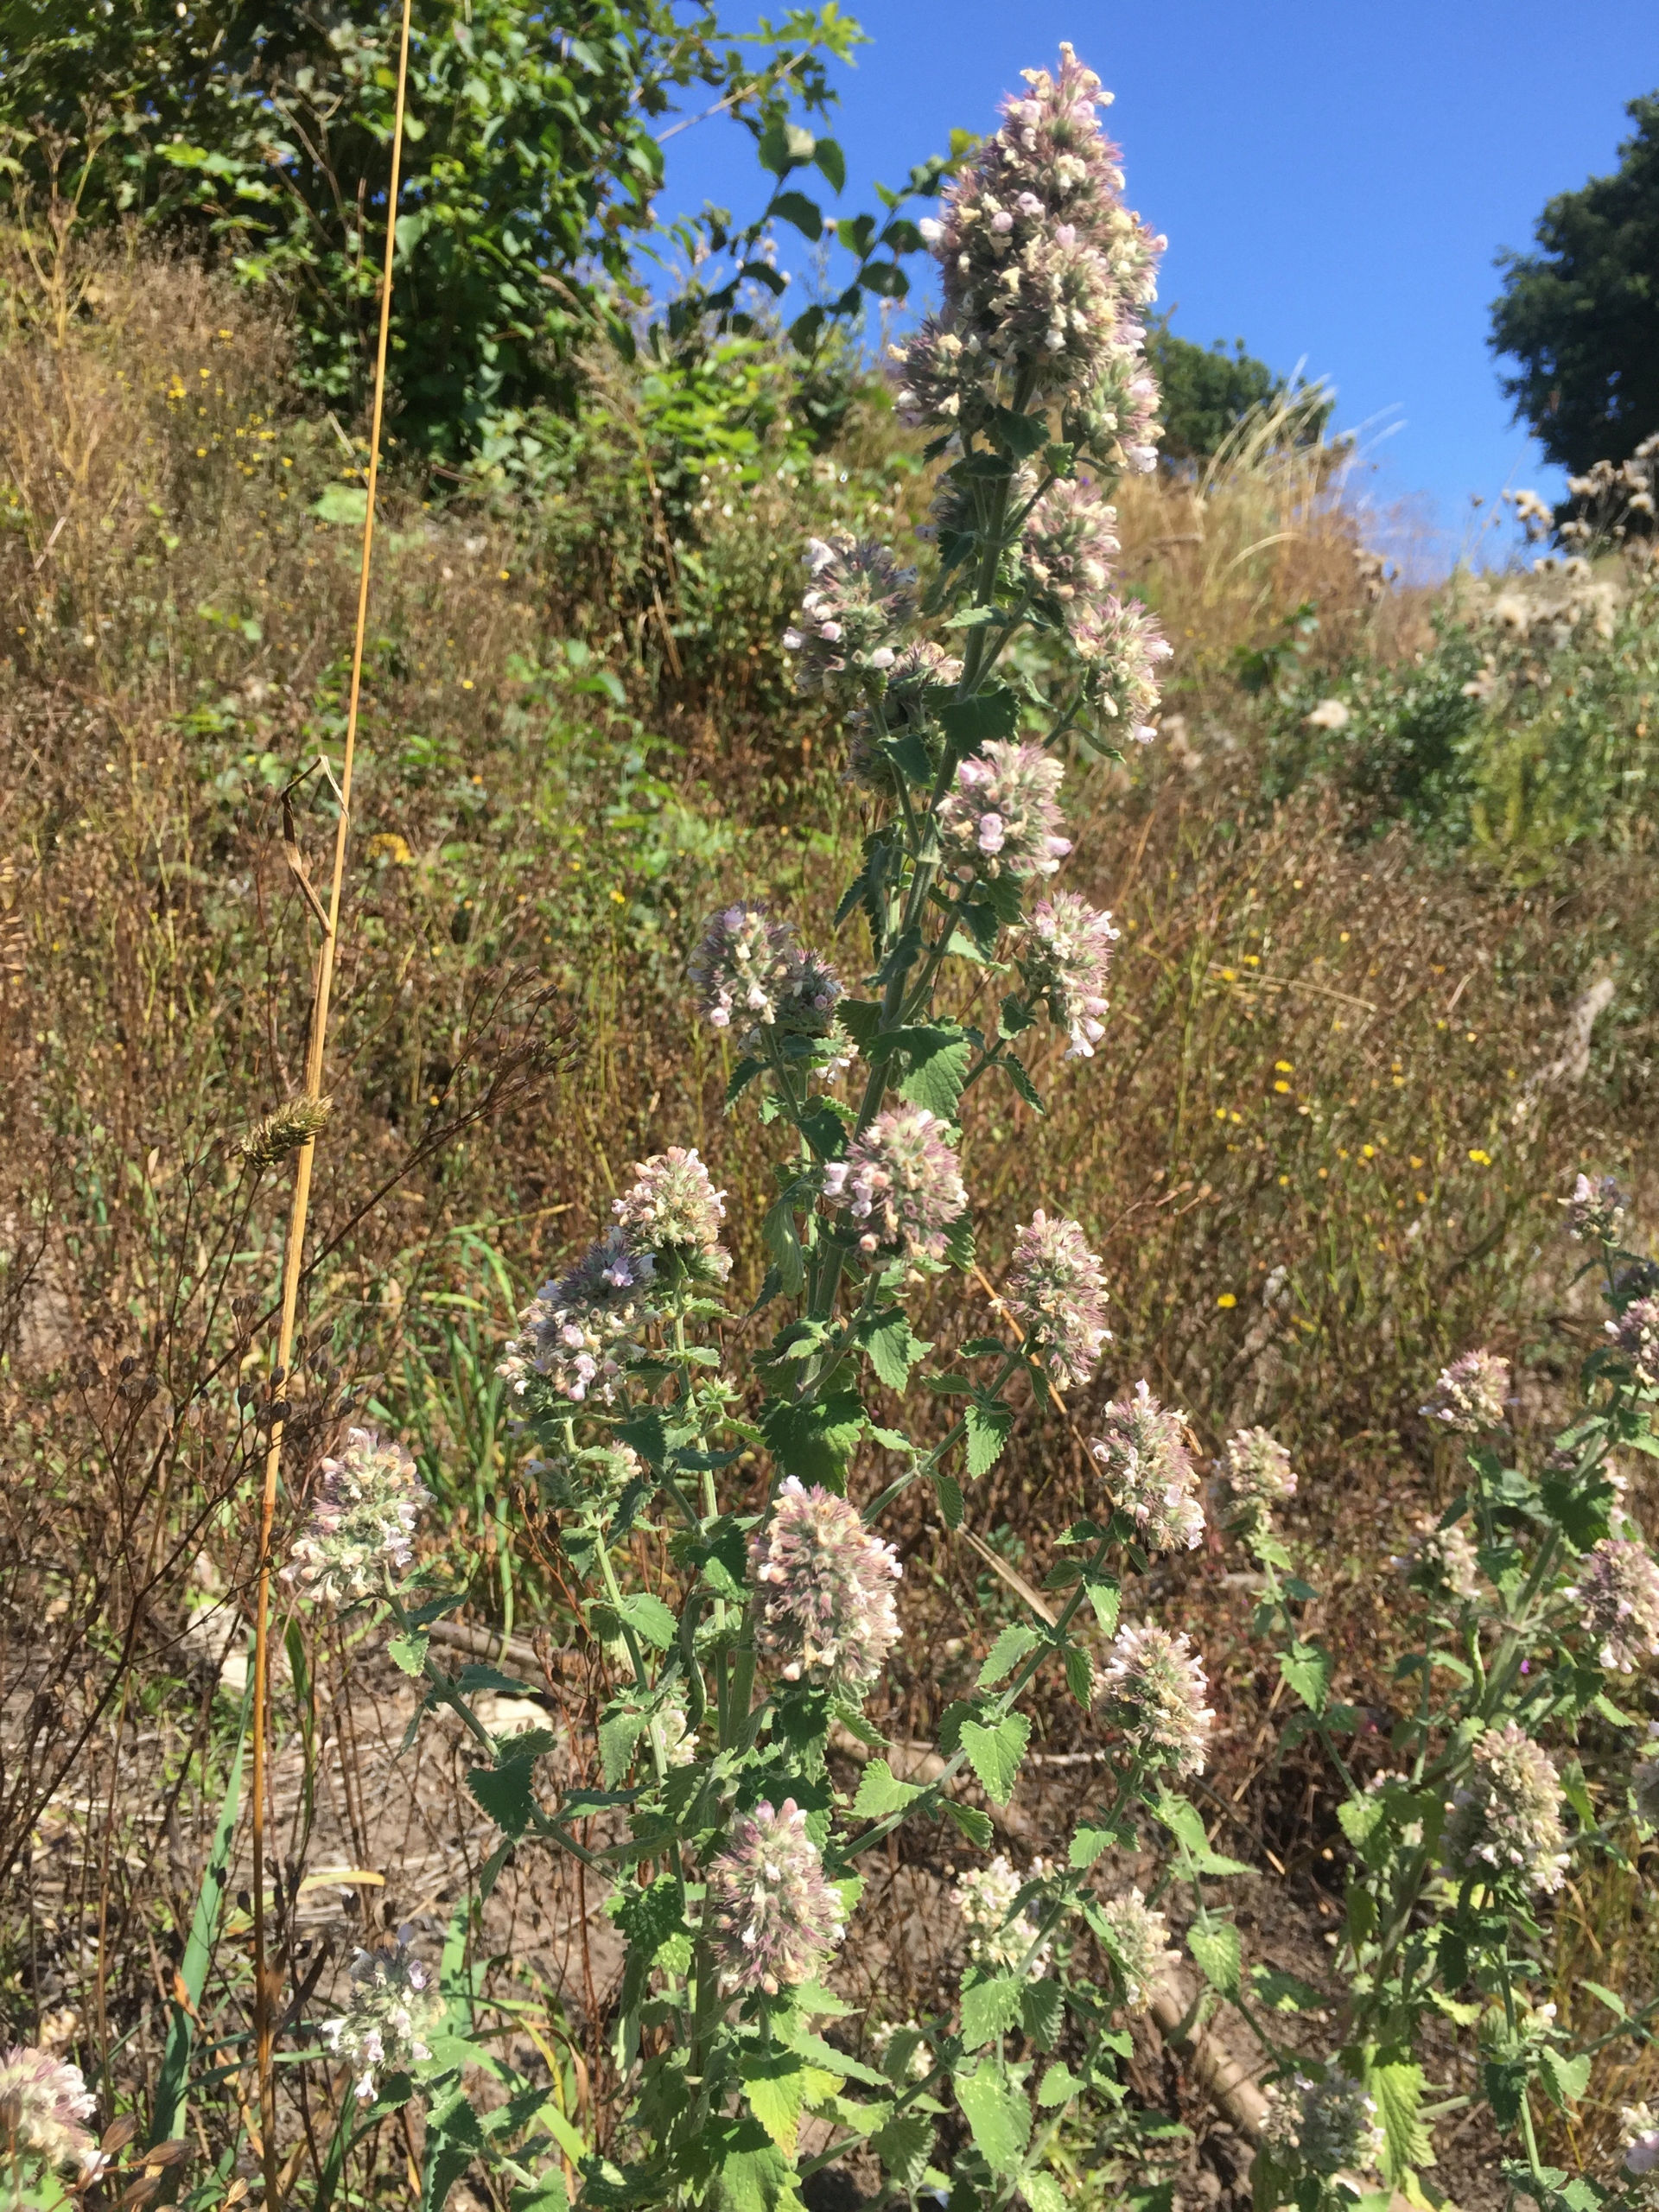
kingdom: Plantae
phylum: Tracheophyta
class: Magnoliopsida
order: Lamiales
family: Lamiaceae
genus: Nepeta
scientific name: Nepeta cataria
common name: Katteurt
